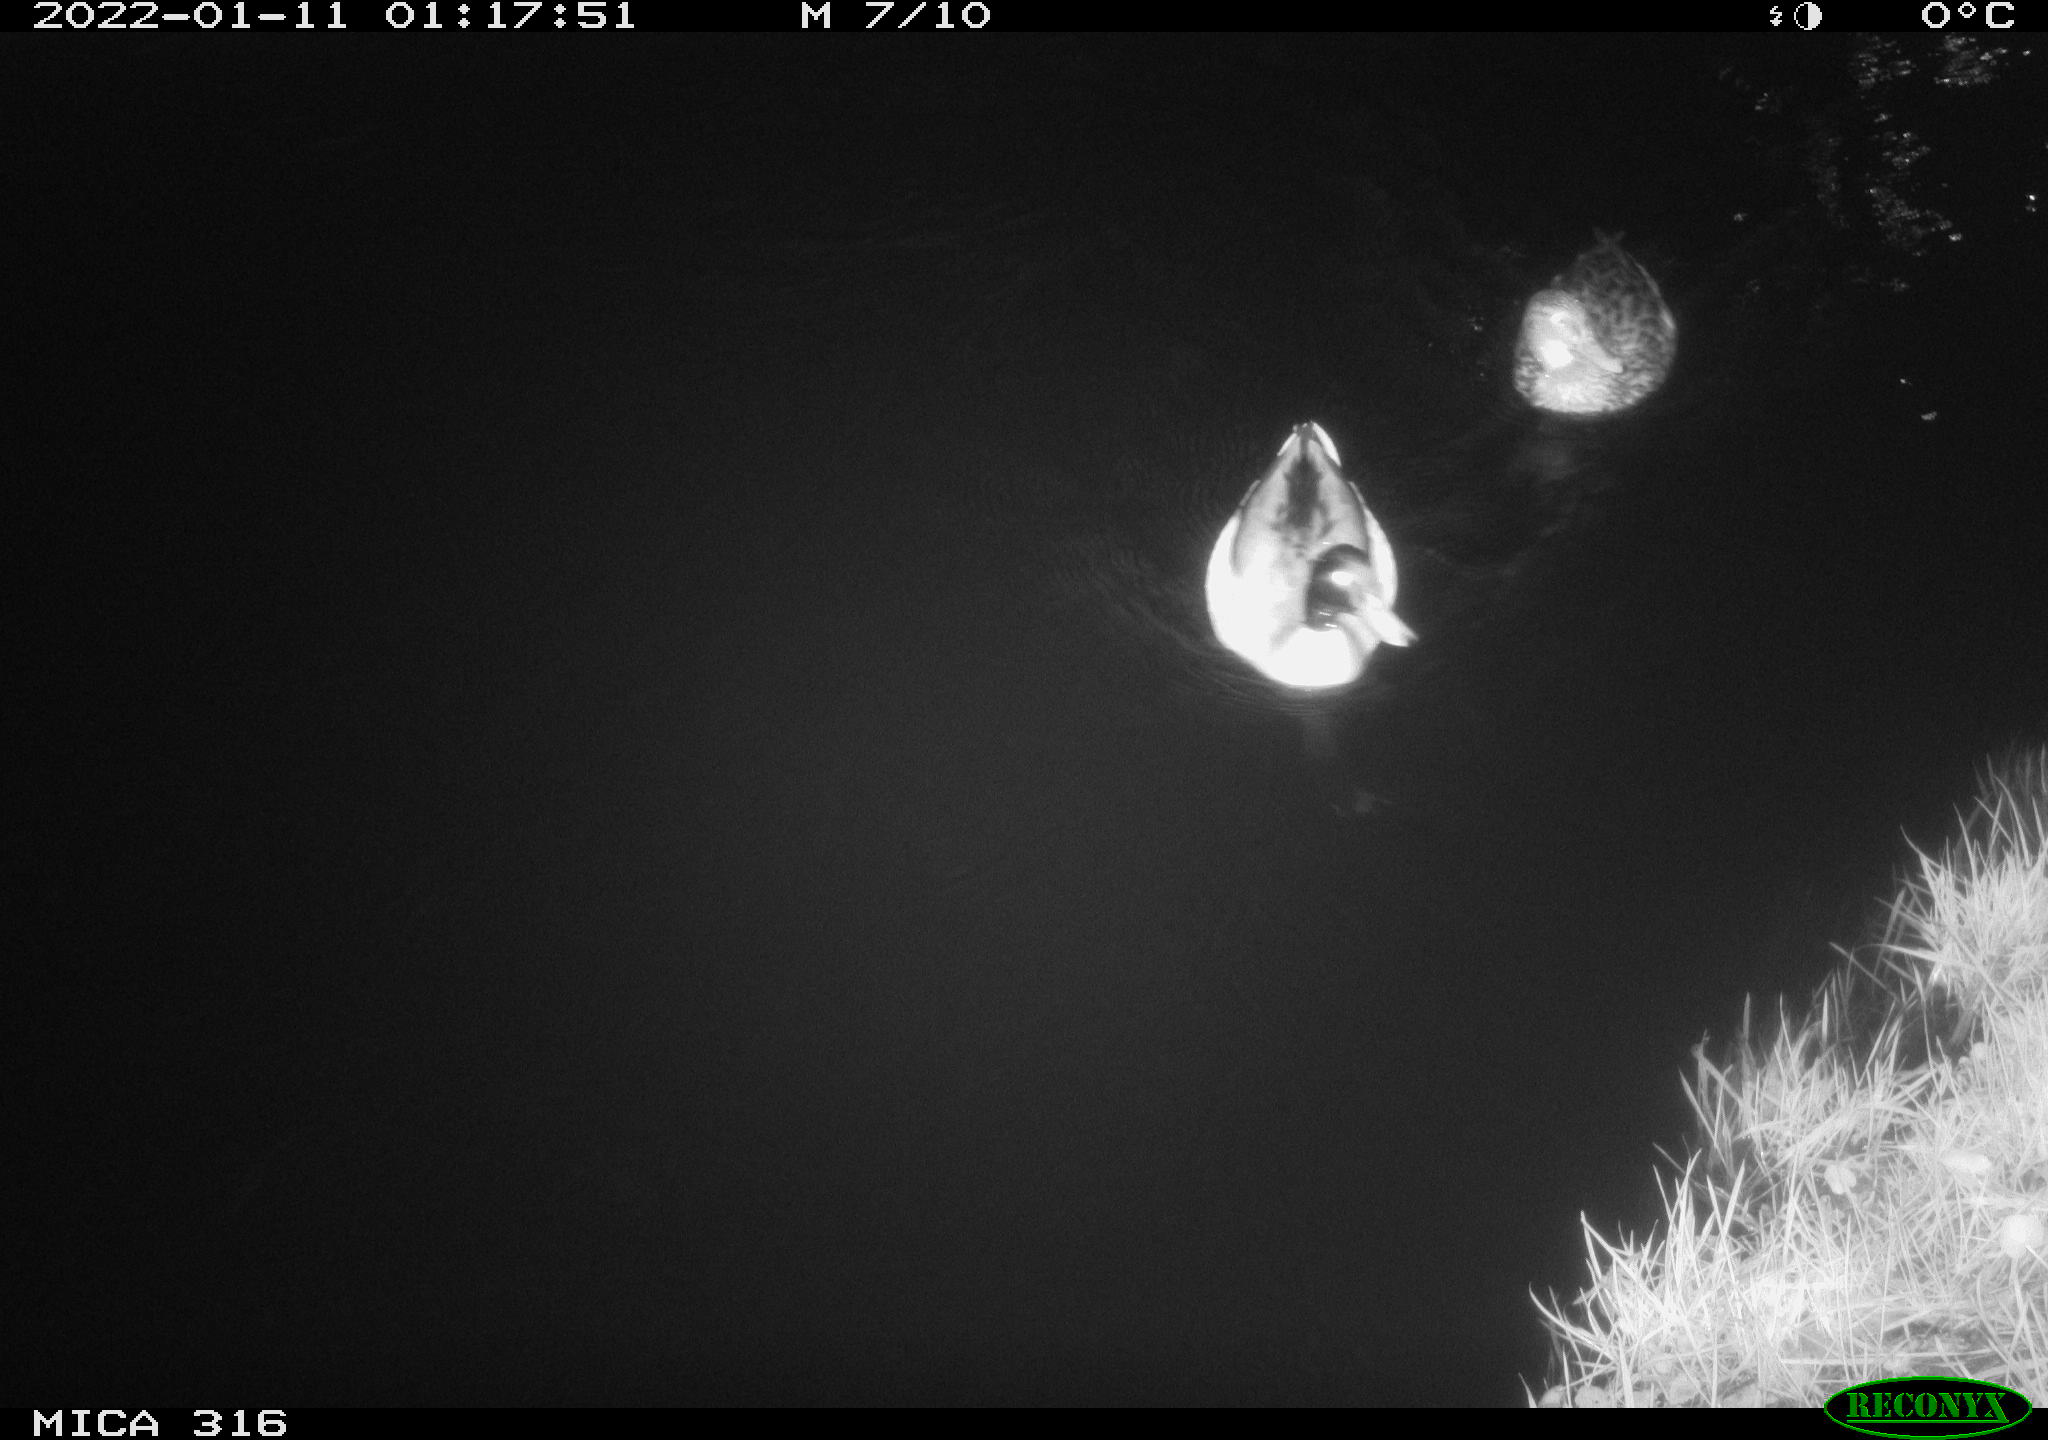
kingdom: Animalia
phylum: Chordata
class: Aves
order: Anseriformes
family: Anatidae
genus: Anas
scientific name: Anas
